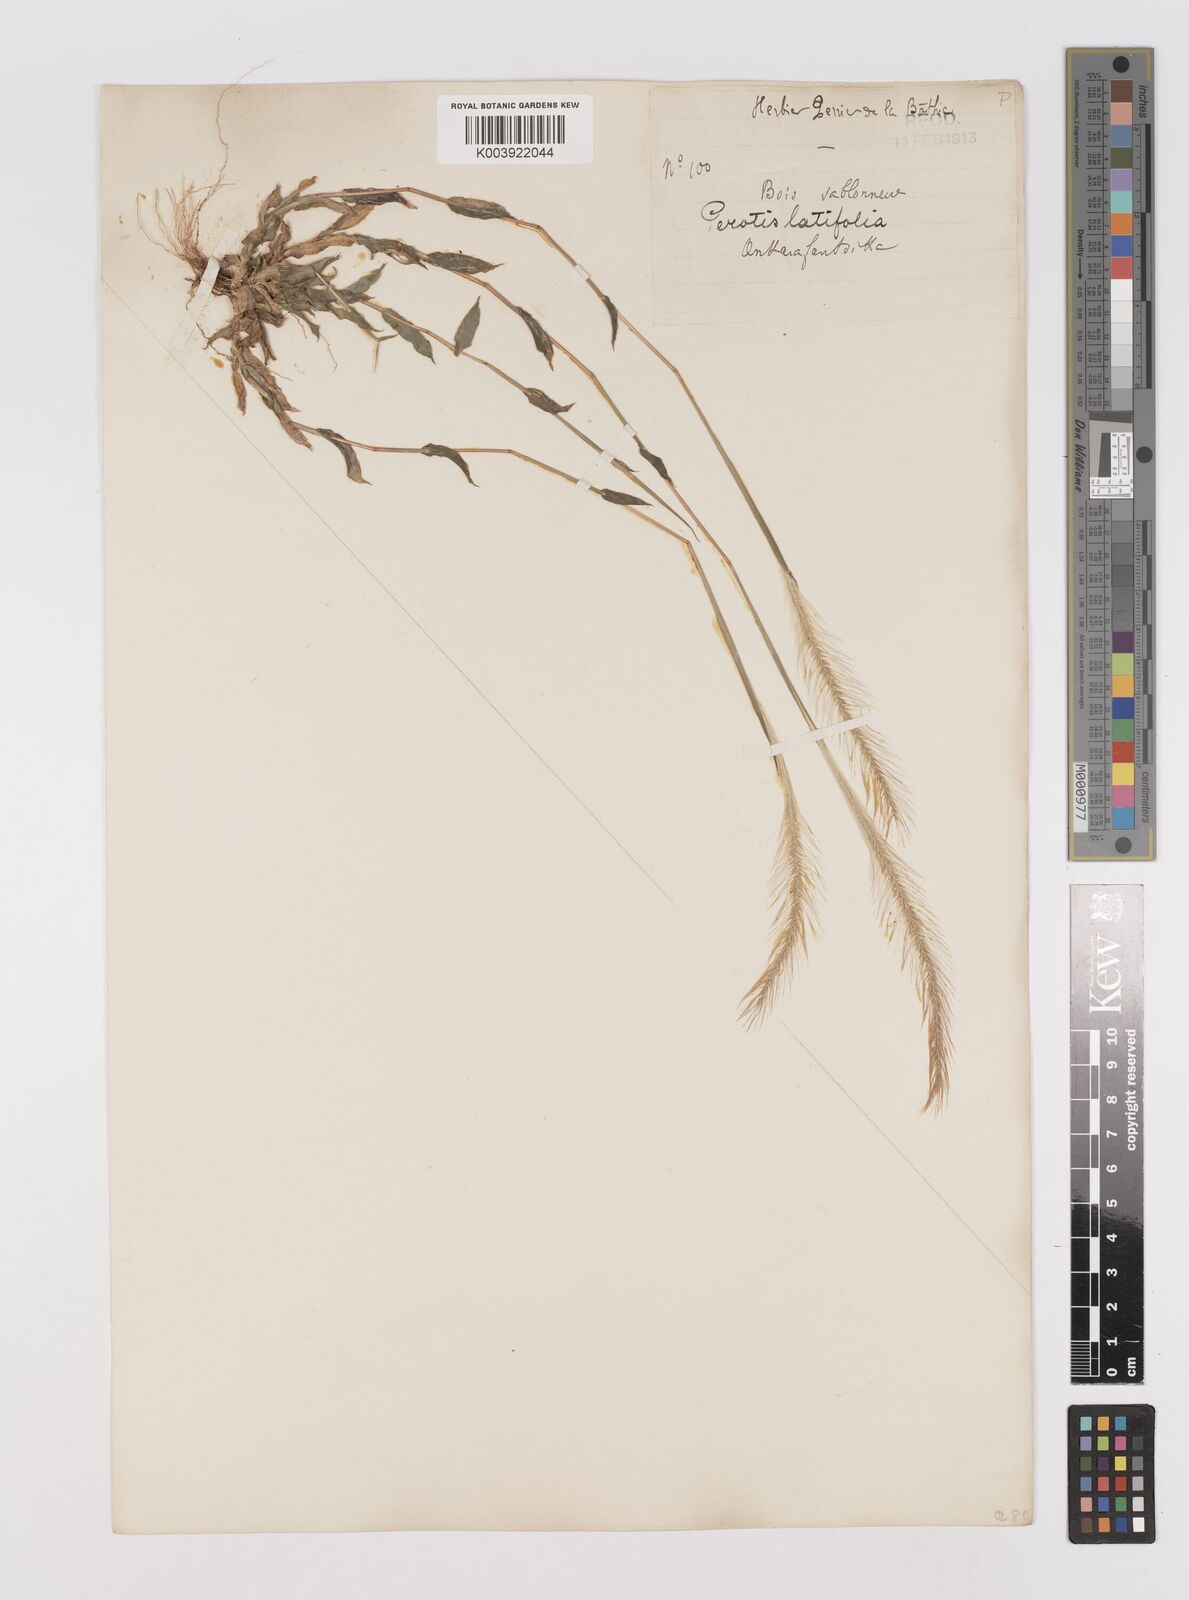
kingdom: Plantae
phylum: Tracheophyta
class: Liliopsida
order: Poales
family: Poaceae
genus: Perotis
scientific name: Perotis patens
